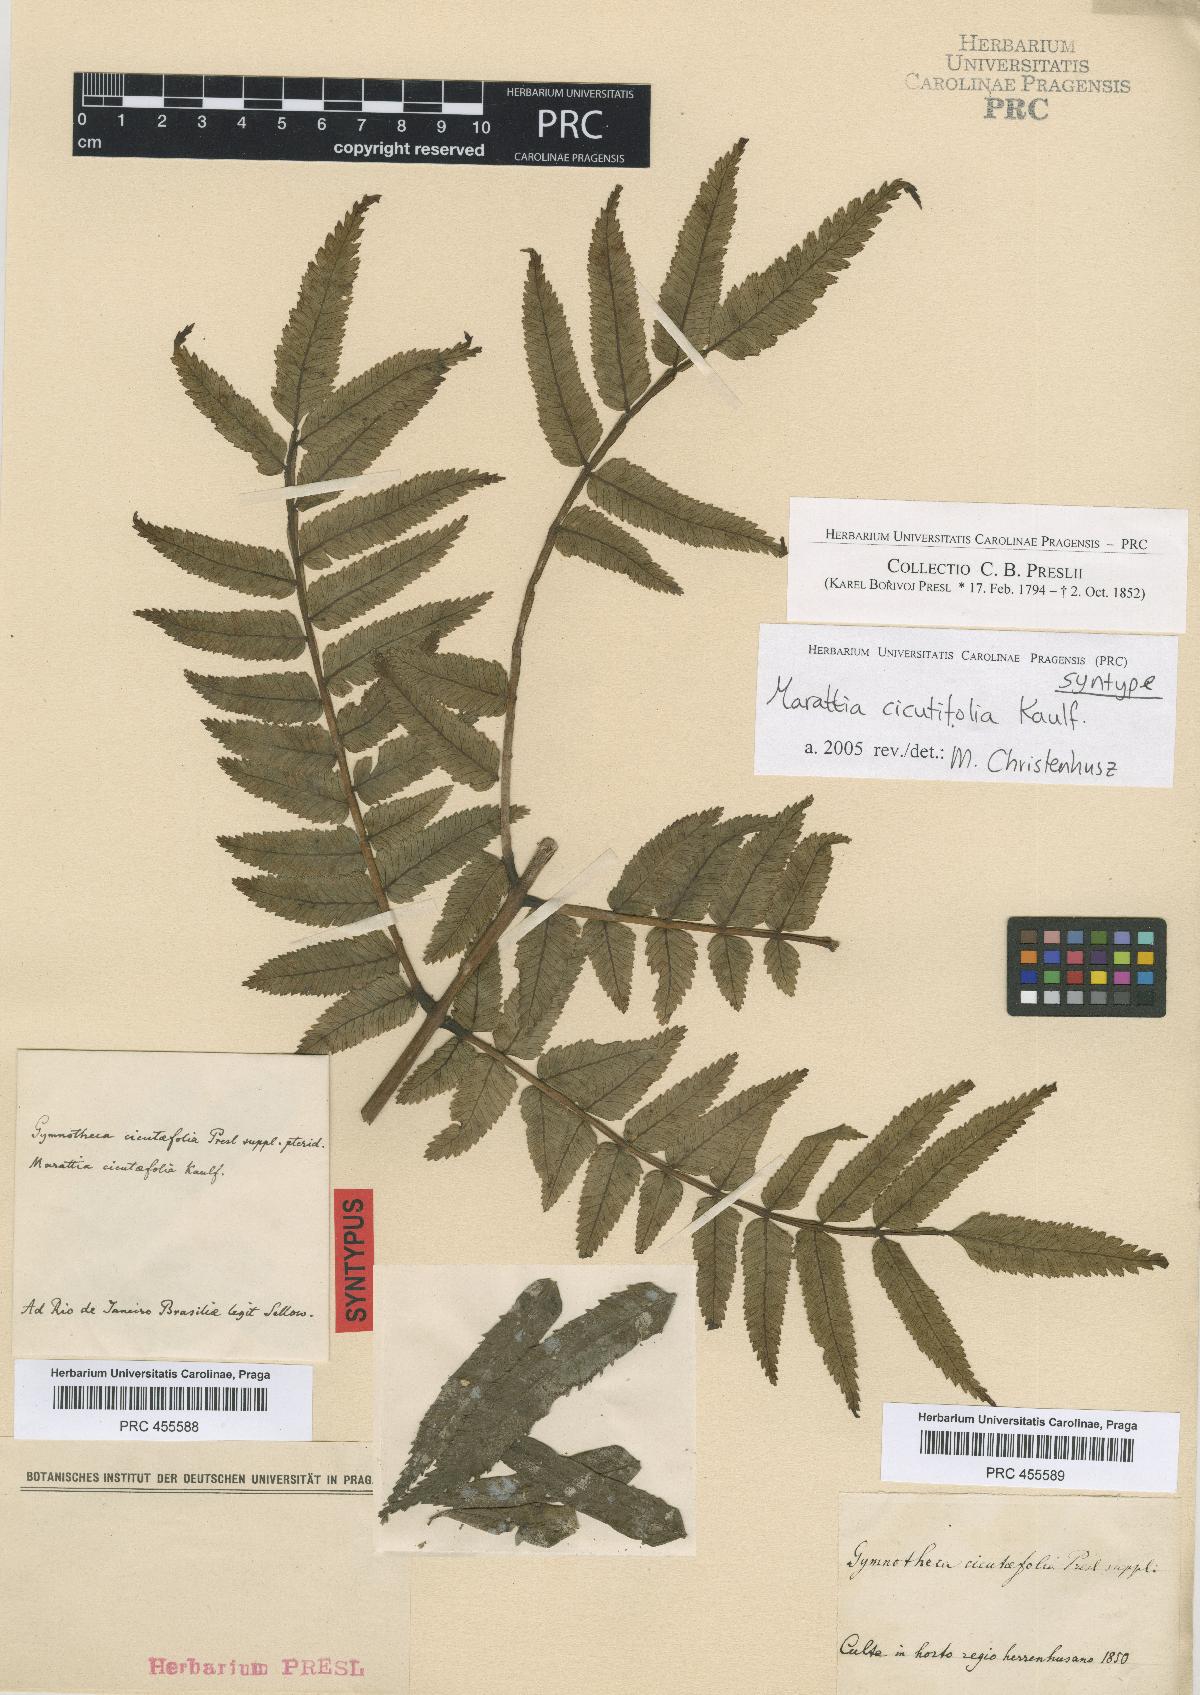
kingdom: Plantae
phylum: Tracheophyta
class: Polypodiopsida
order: Marattiales
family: Marattiaceae
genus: Eupodium
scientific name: Eupodium cicutifolium
